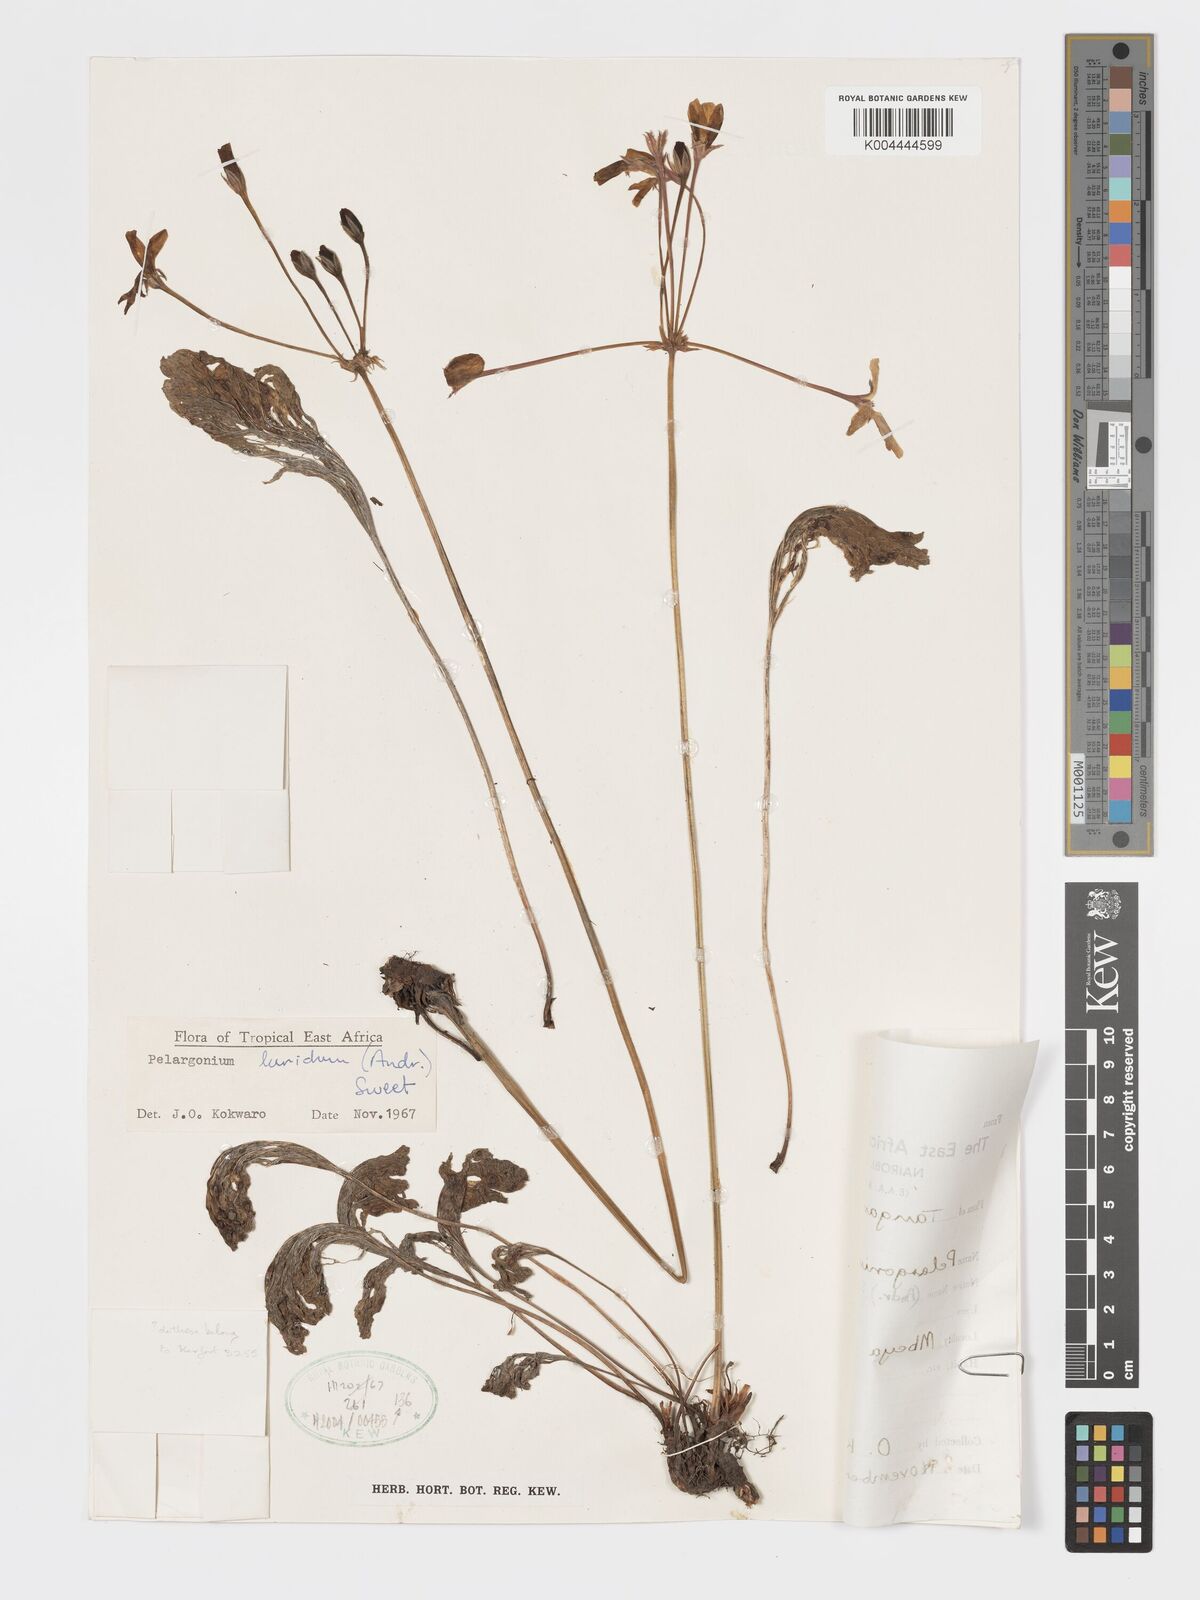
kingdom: Plantae
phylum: Tracheophyta
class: Magnoliopsida
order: Geraniales
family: Geraniaceae
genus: Pelargonium
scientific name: Pelargonium luridum
